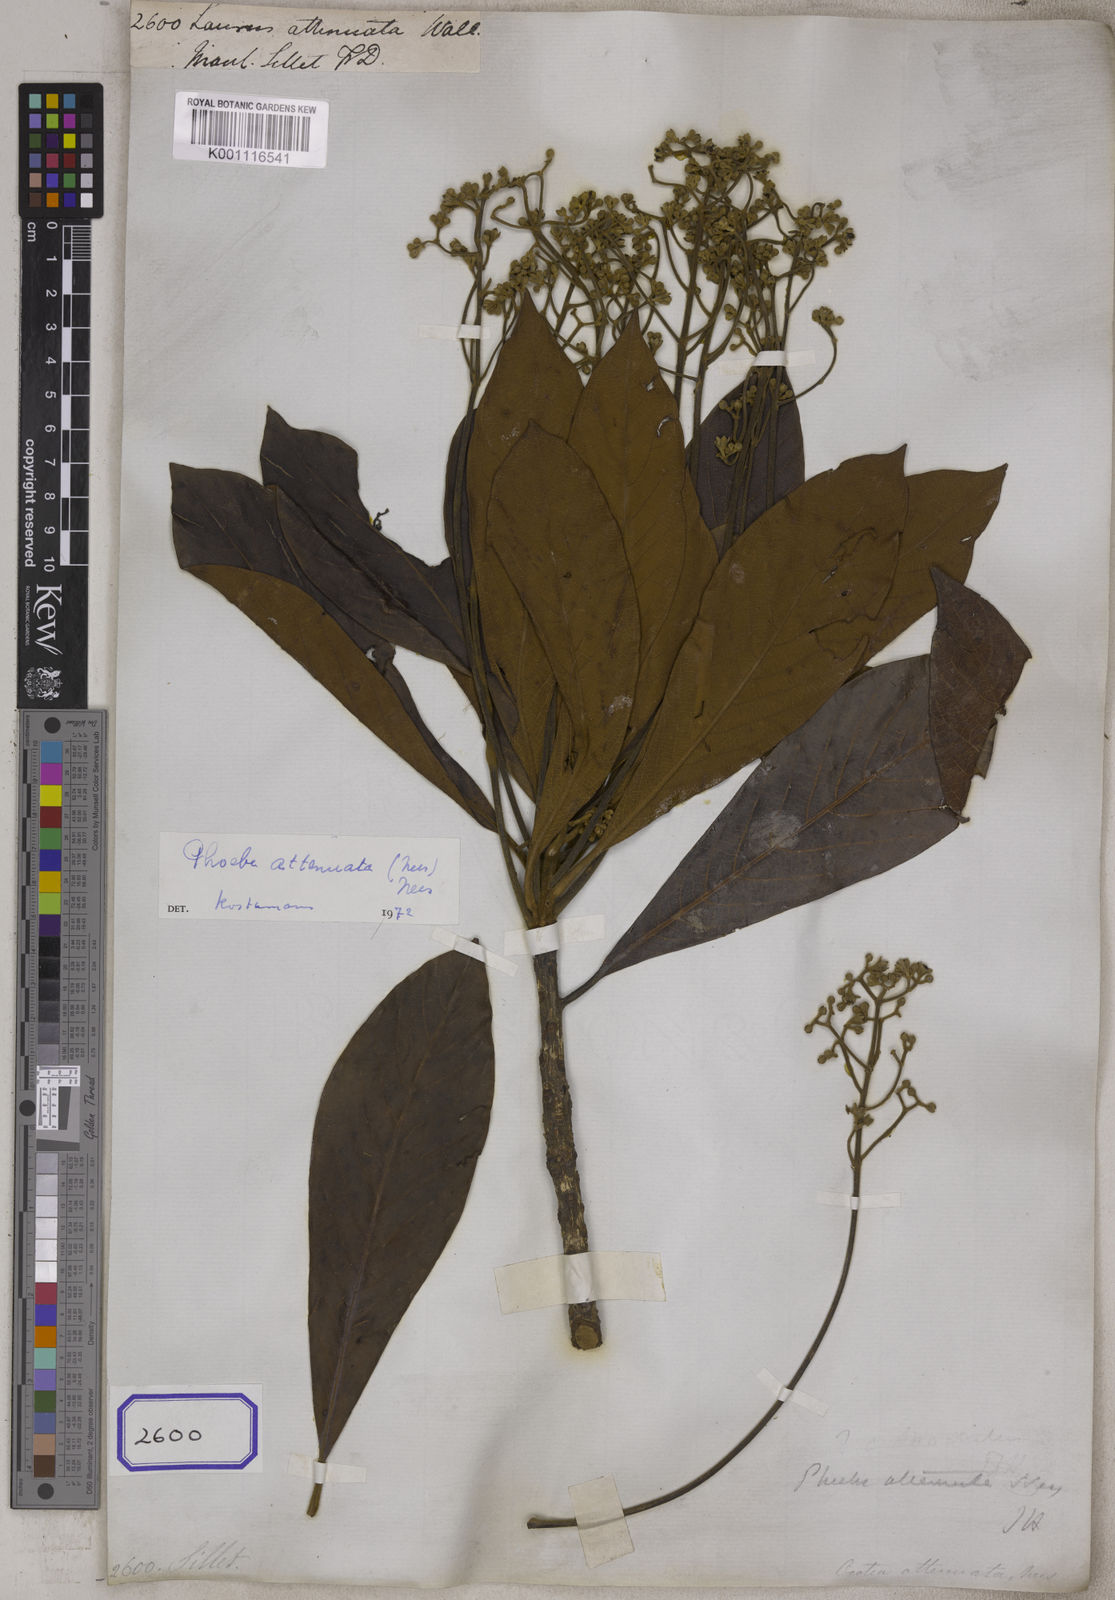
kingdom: Plantae
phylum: Tracheophyta
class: Magnoliopsida
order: Laurales
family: Lauraceae
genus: Phoebe
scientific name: Phoebe attenuata
